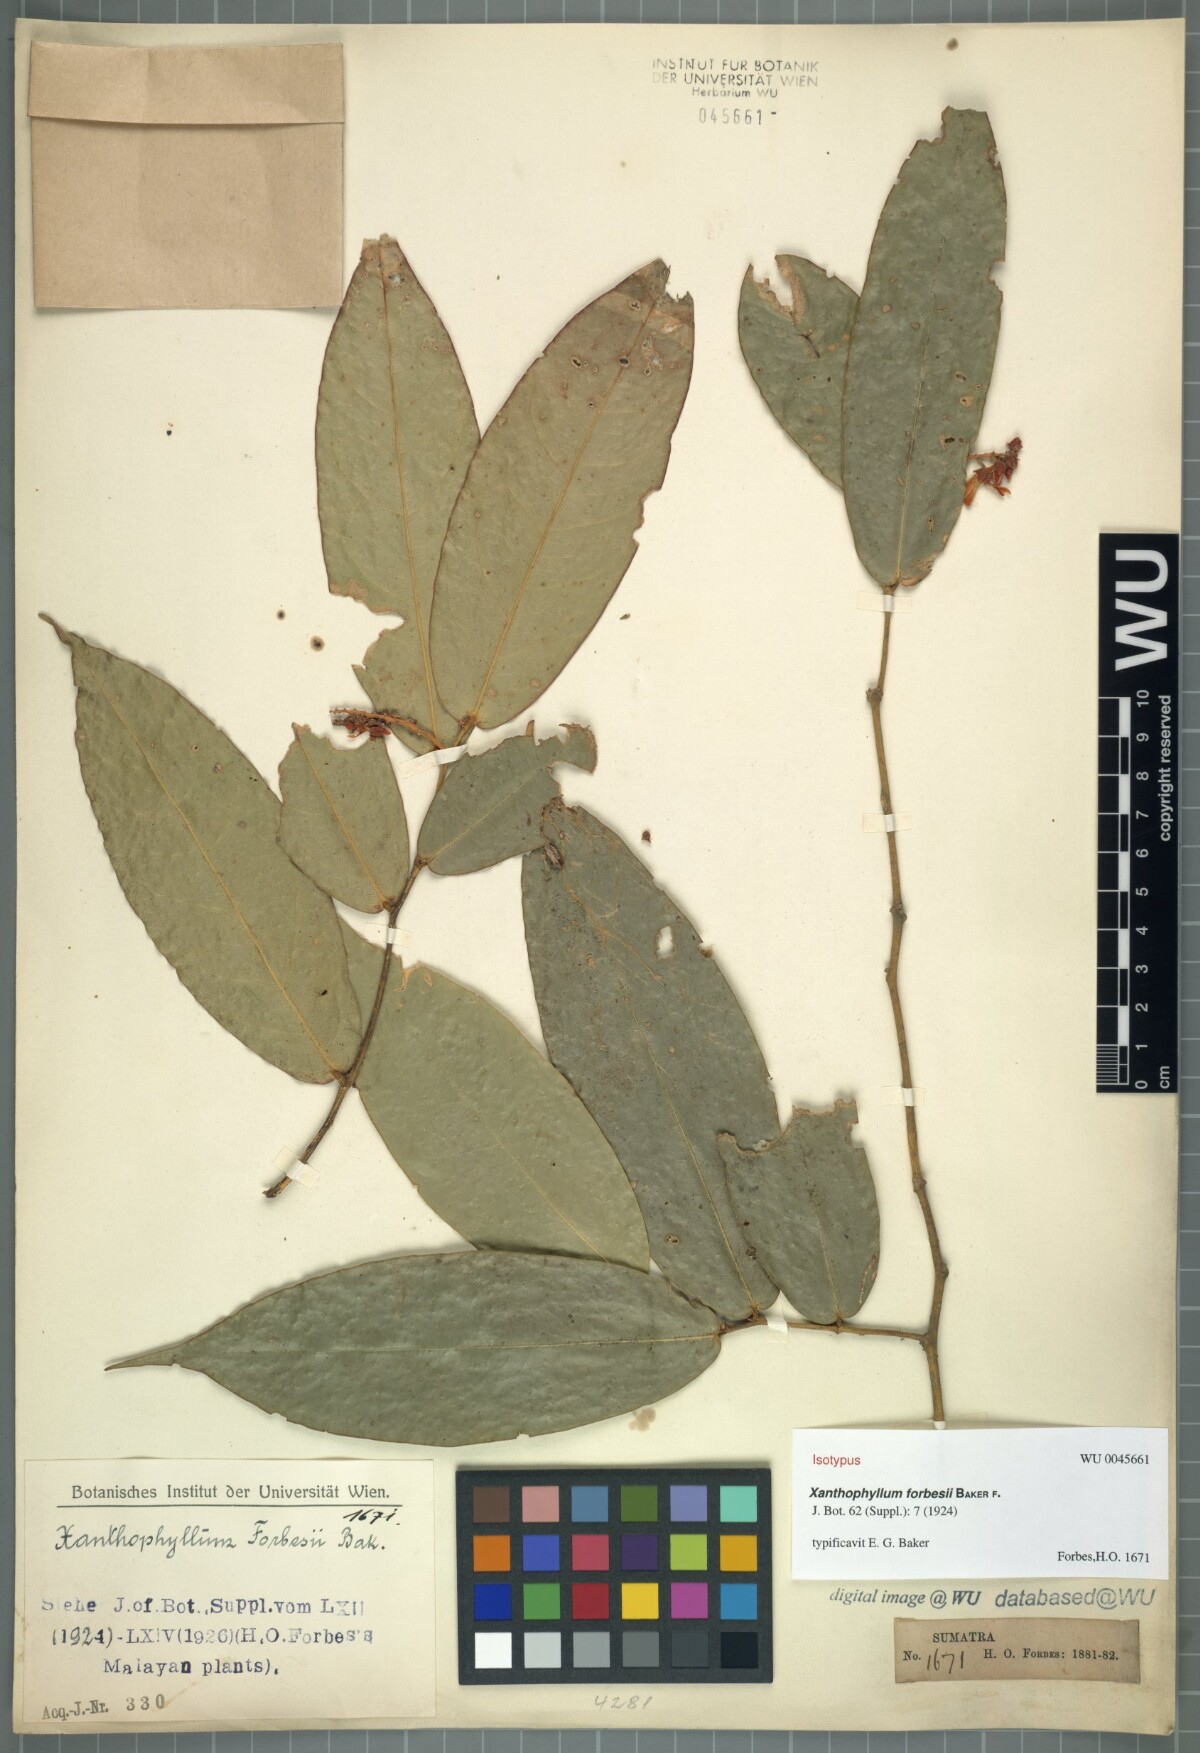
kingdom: Plantae
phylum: Tracheophyta
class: Magnoliopsida
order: Fabales
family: Polygalaceae
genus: Xanthophyllum
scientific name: Xanthophyllum erythrostachyum
